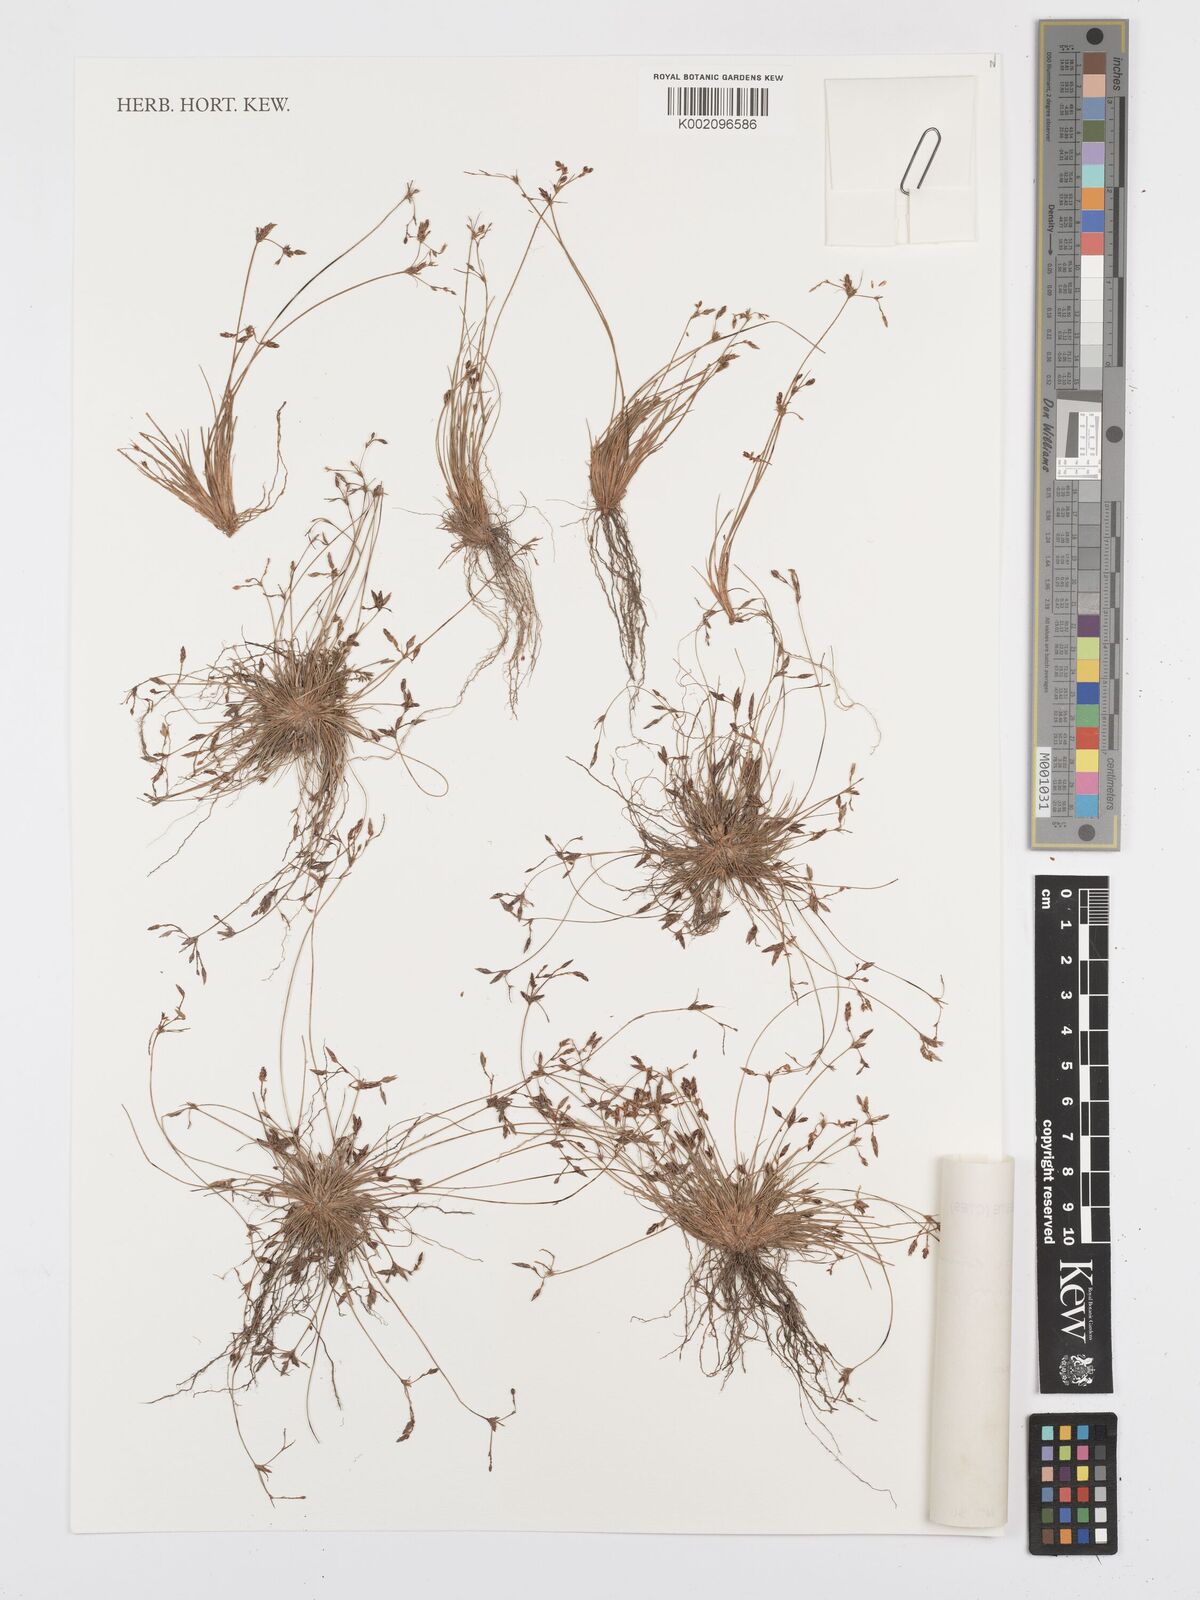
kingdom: Plantae
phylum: Tracheophyta
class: Liliopsida
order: Poales
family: Cyperaceae
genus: Bulbostylis
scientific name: Bulbostylis communis
